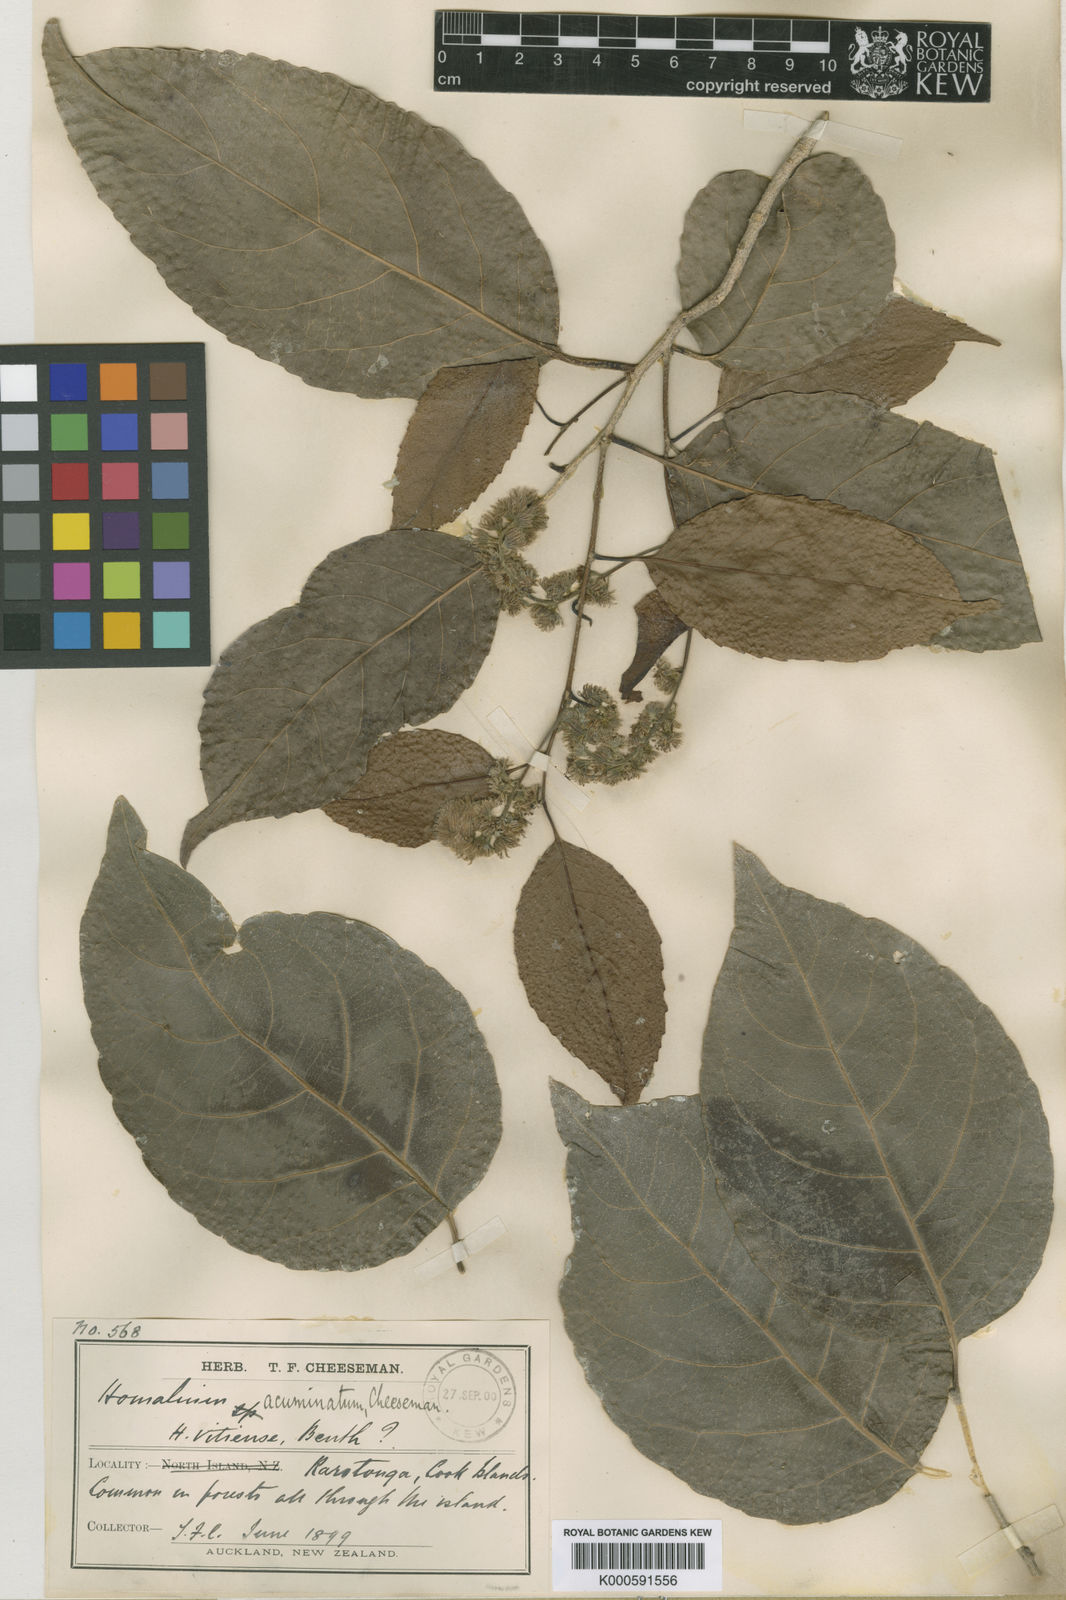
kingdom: Plantae
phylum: Tracheophyta
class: Magnoliopsida
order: Malpighiales
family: Salicaceae
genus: Homalium
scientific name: Homalium acuminatum
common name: Rarotonga homalium
